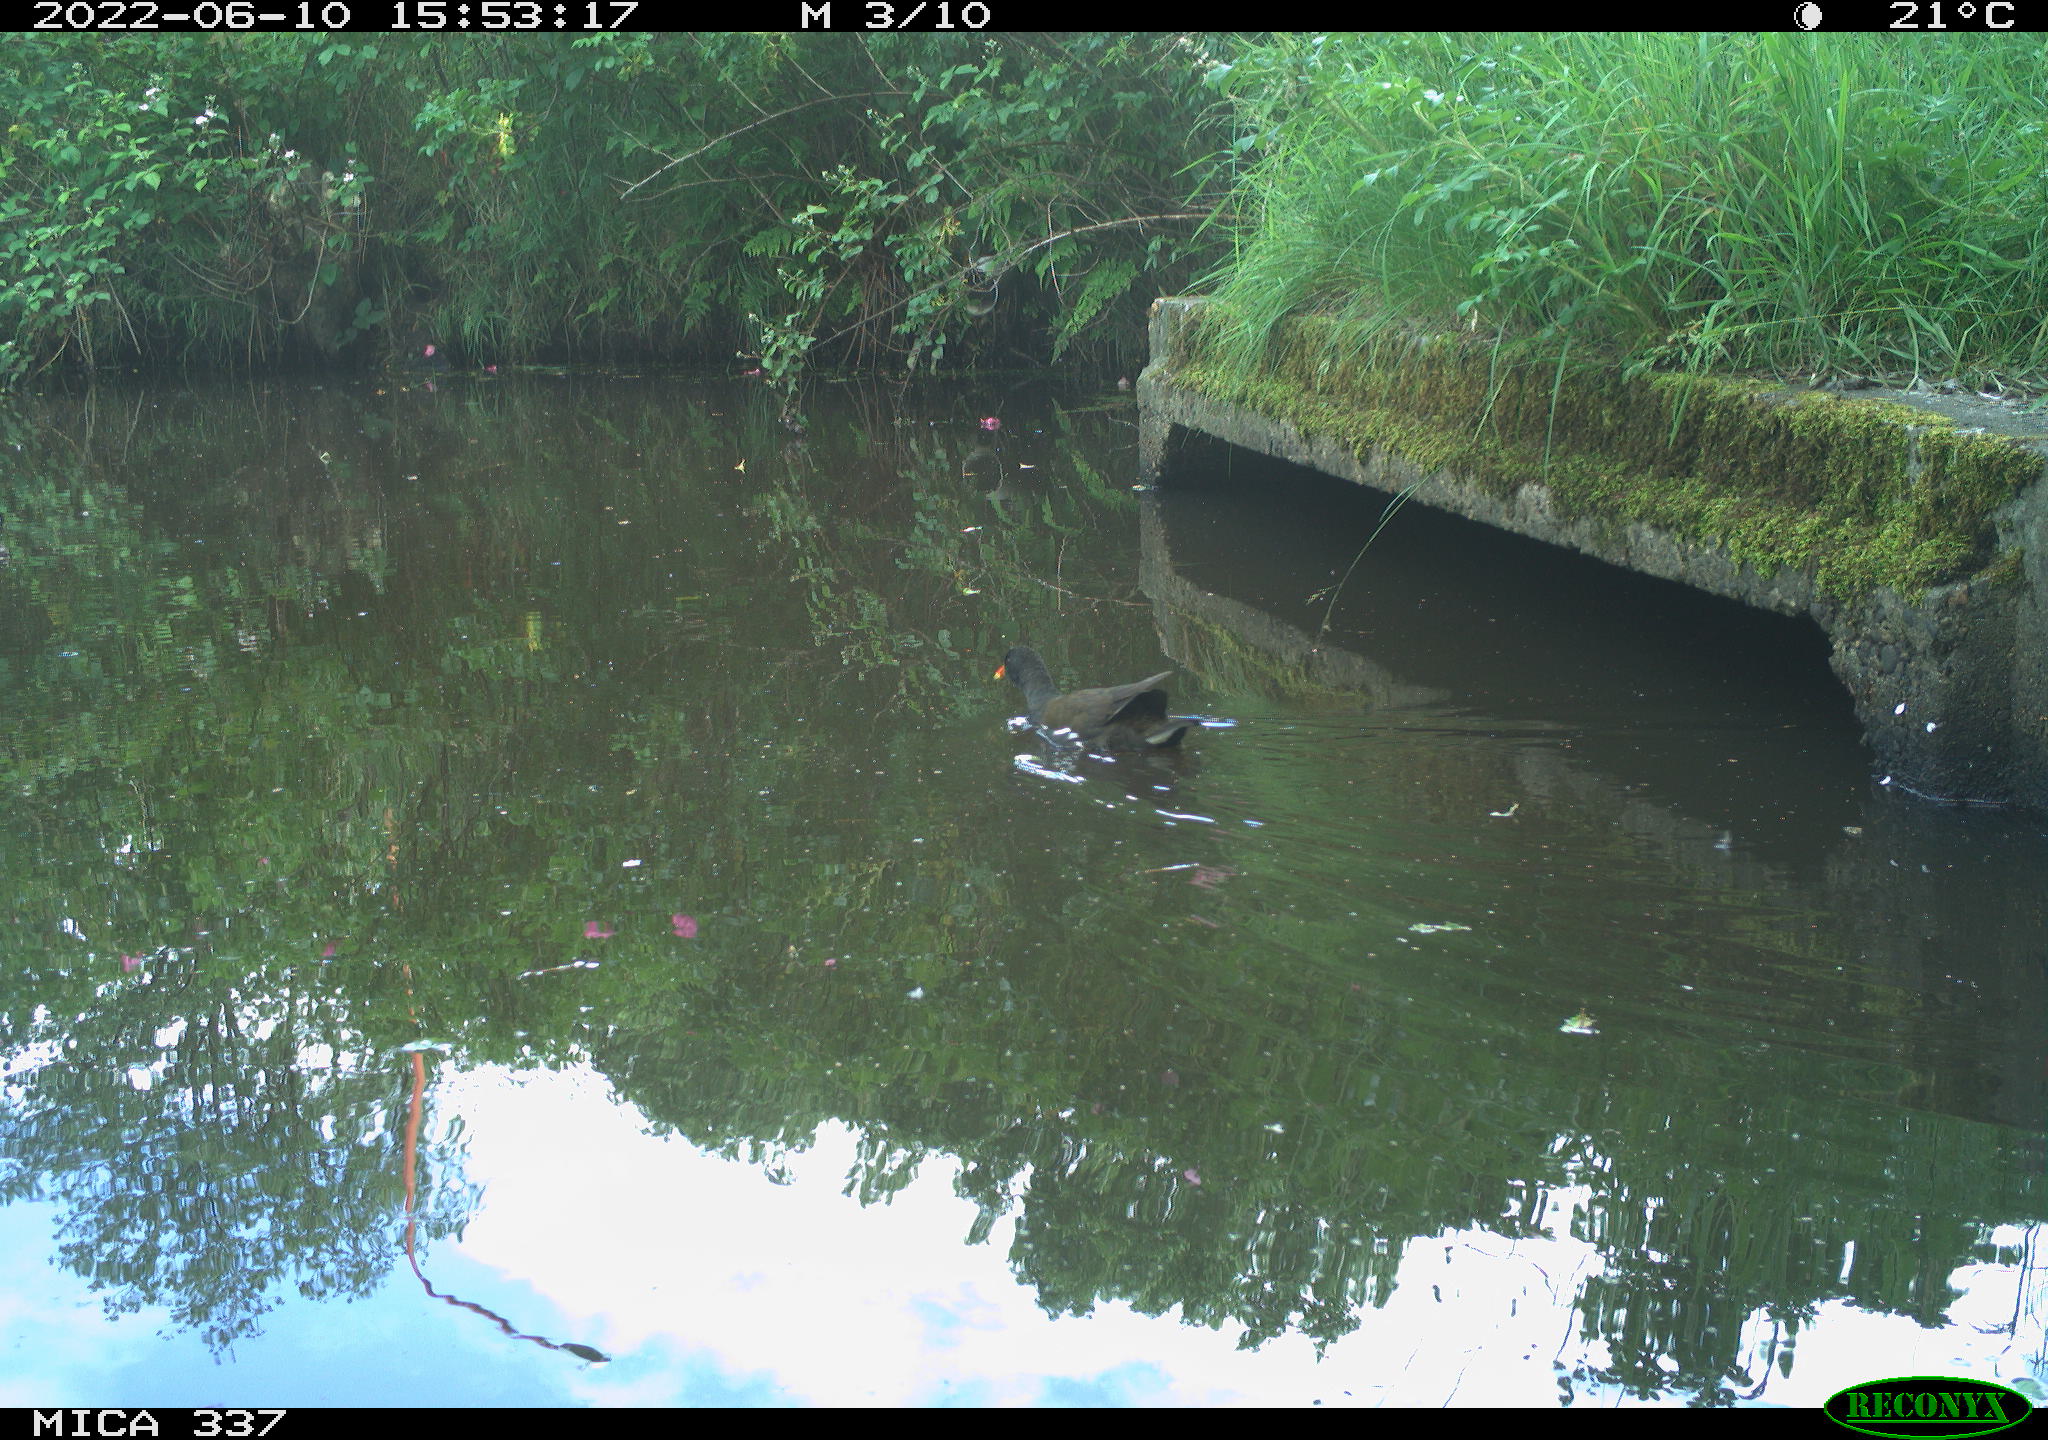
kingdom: Animalia
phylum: Chordata
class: Aves
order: Gruiformes
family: Rallidae
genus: Gallinula
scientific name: Gallinula chloropus
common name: Common moorhen
